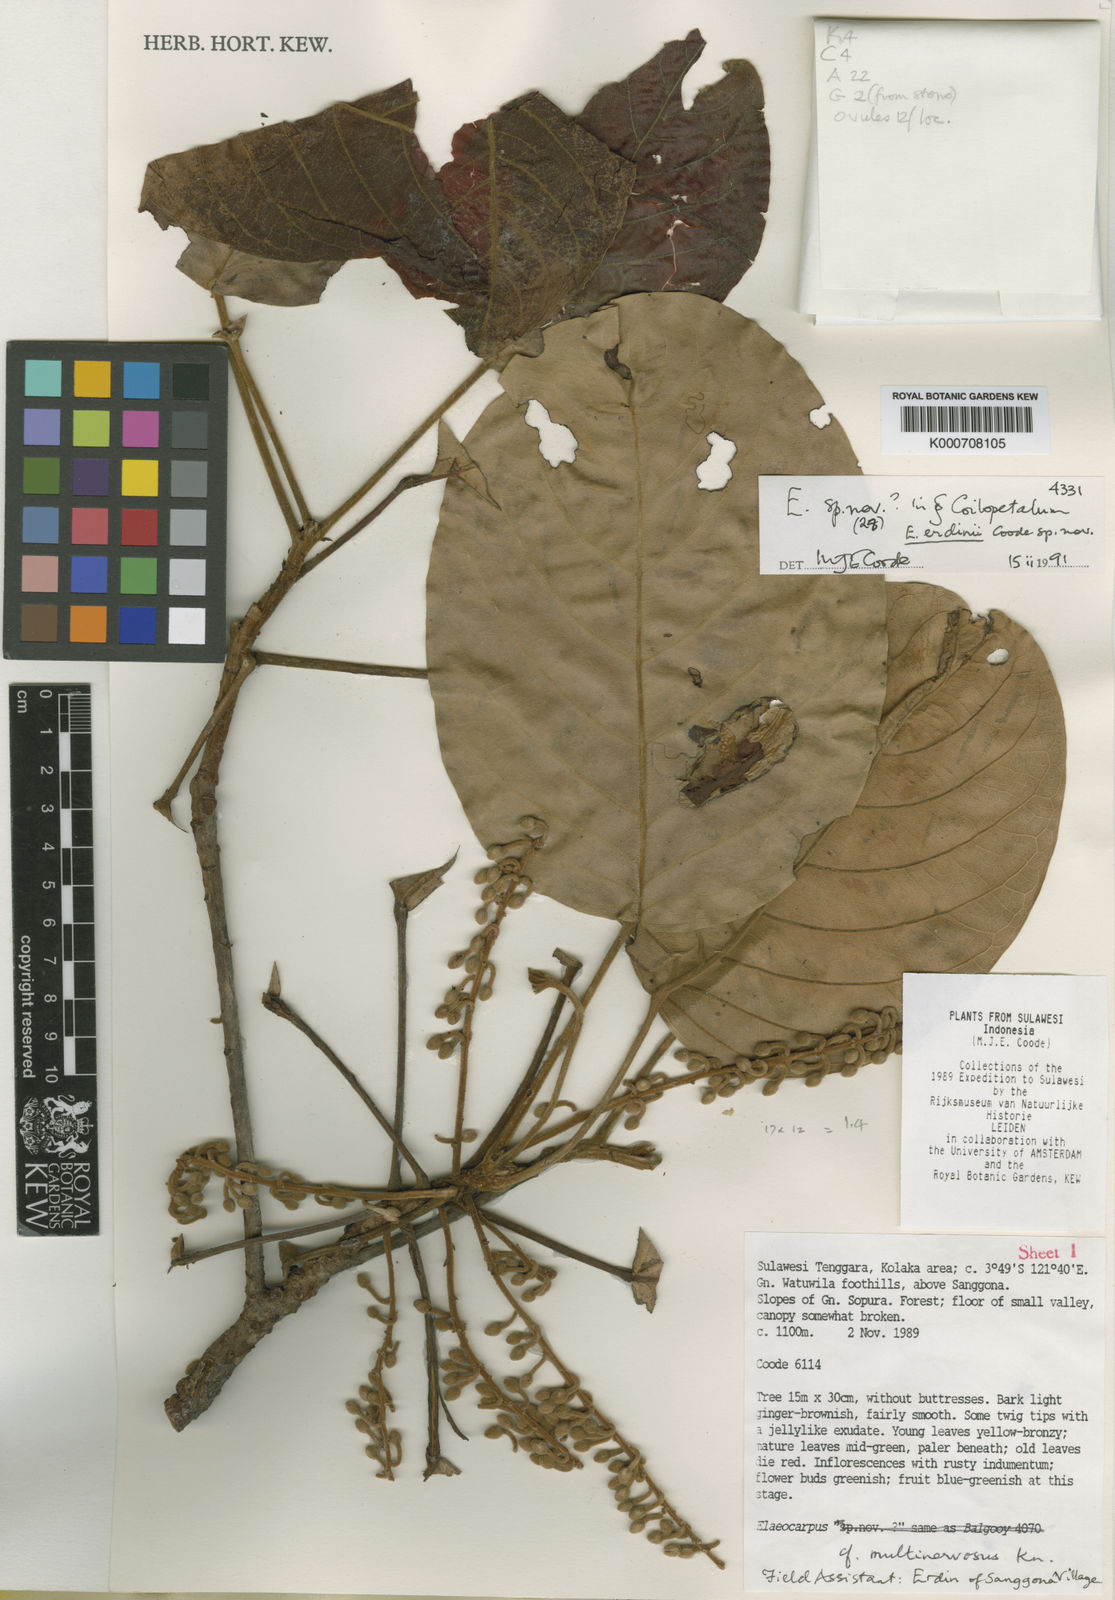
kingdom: Plantae
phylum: Tracheophyta
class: Magnoliopsida
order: Oxalidales
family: Elaeocarpaceae
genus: Elaeocarpus
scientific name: Elaeocarpus erdinii
